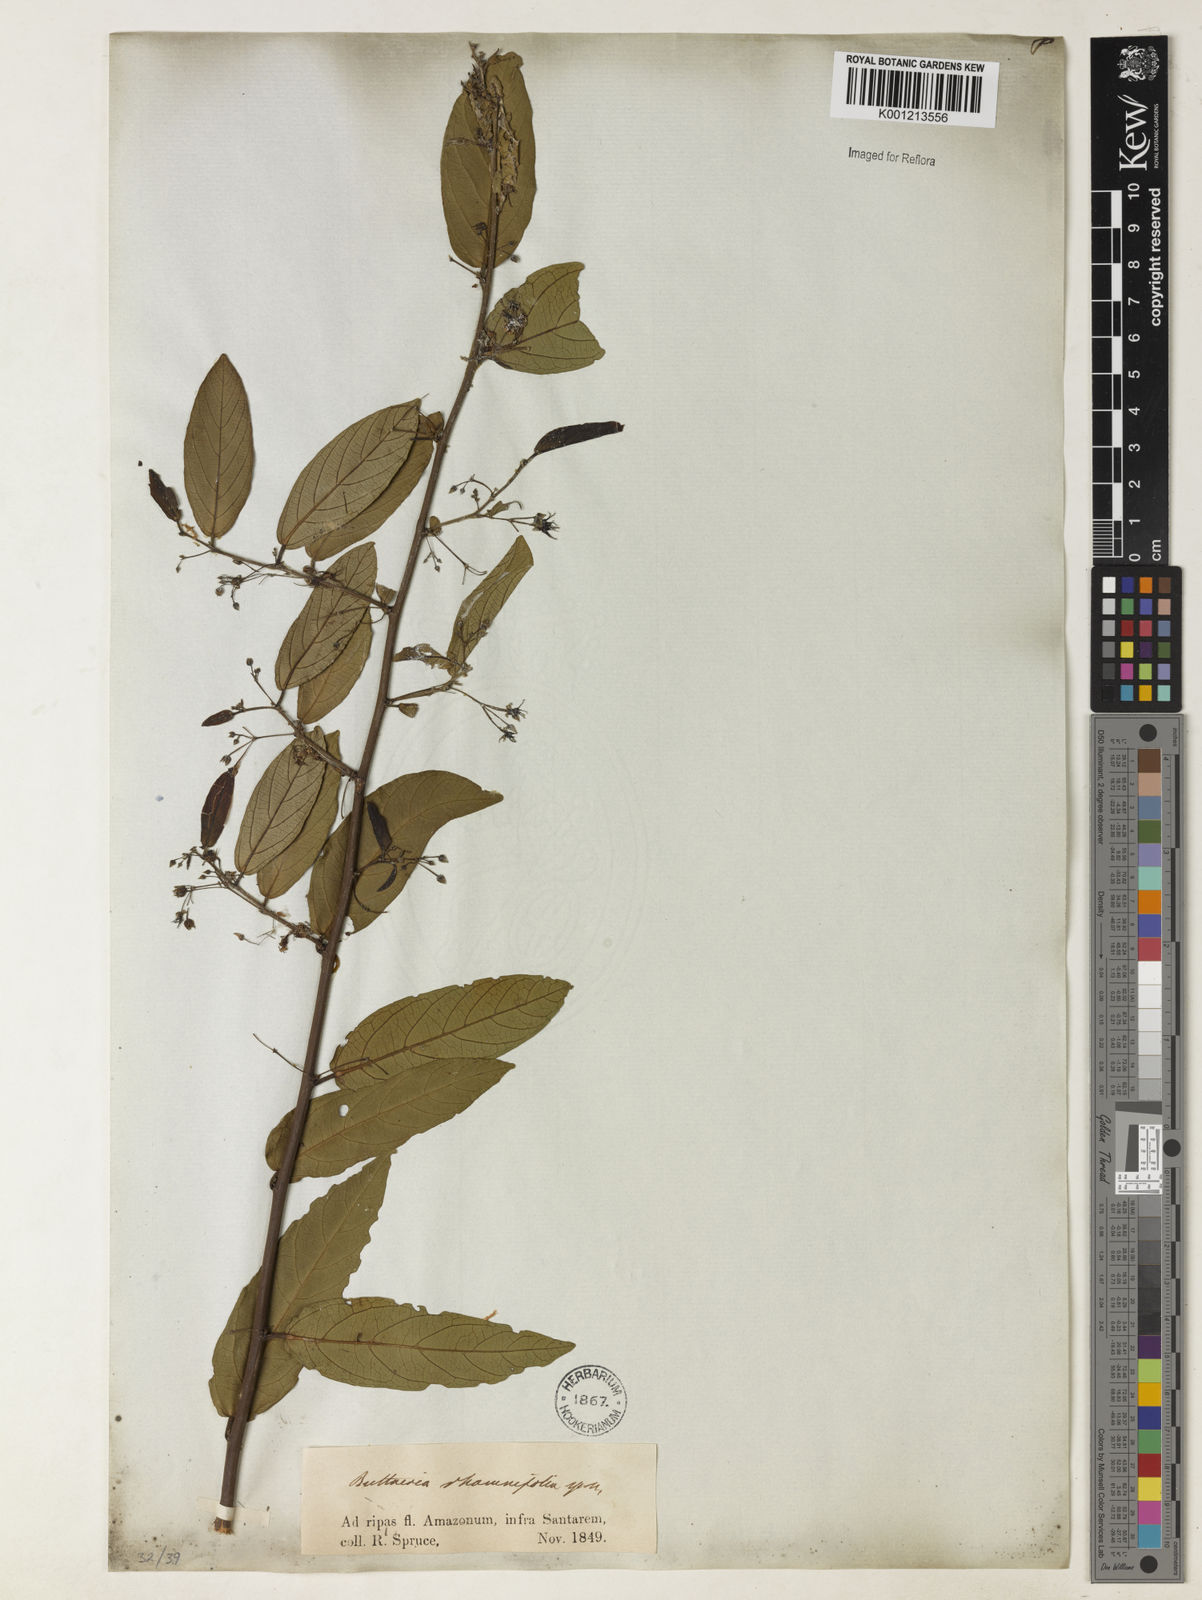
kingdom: Plantae
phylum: Tracheophyta
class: Magnoliopsida
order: Malvales
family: Malvaceae
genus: Byttneria
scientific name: Byttneria rhamnifolia
